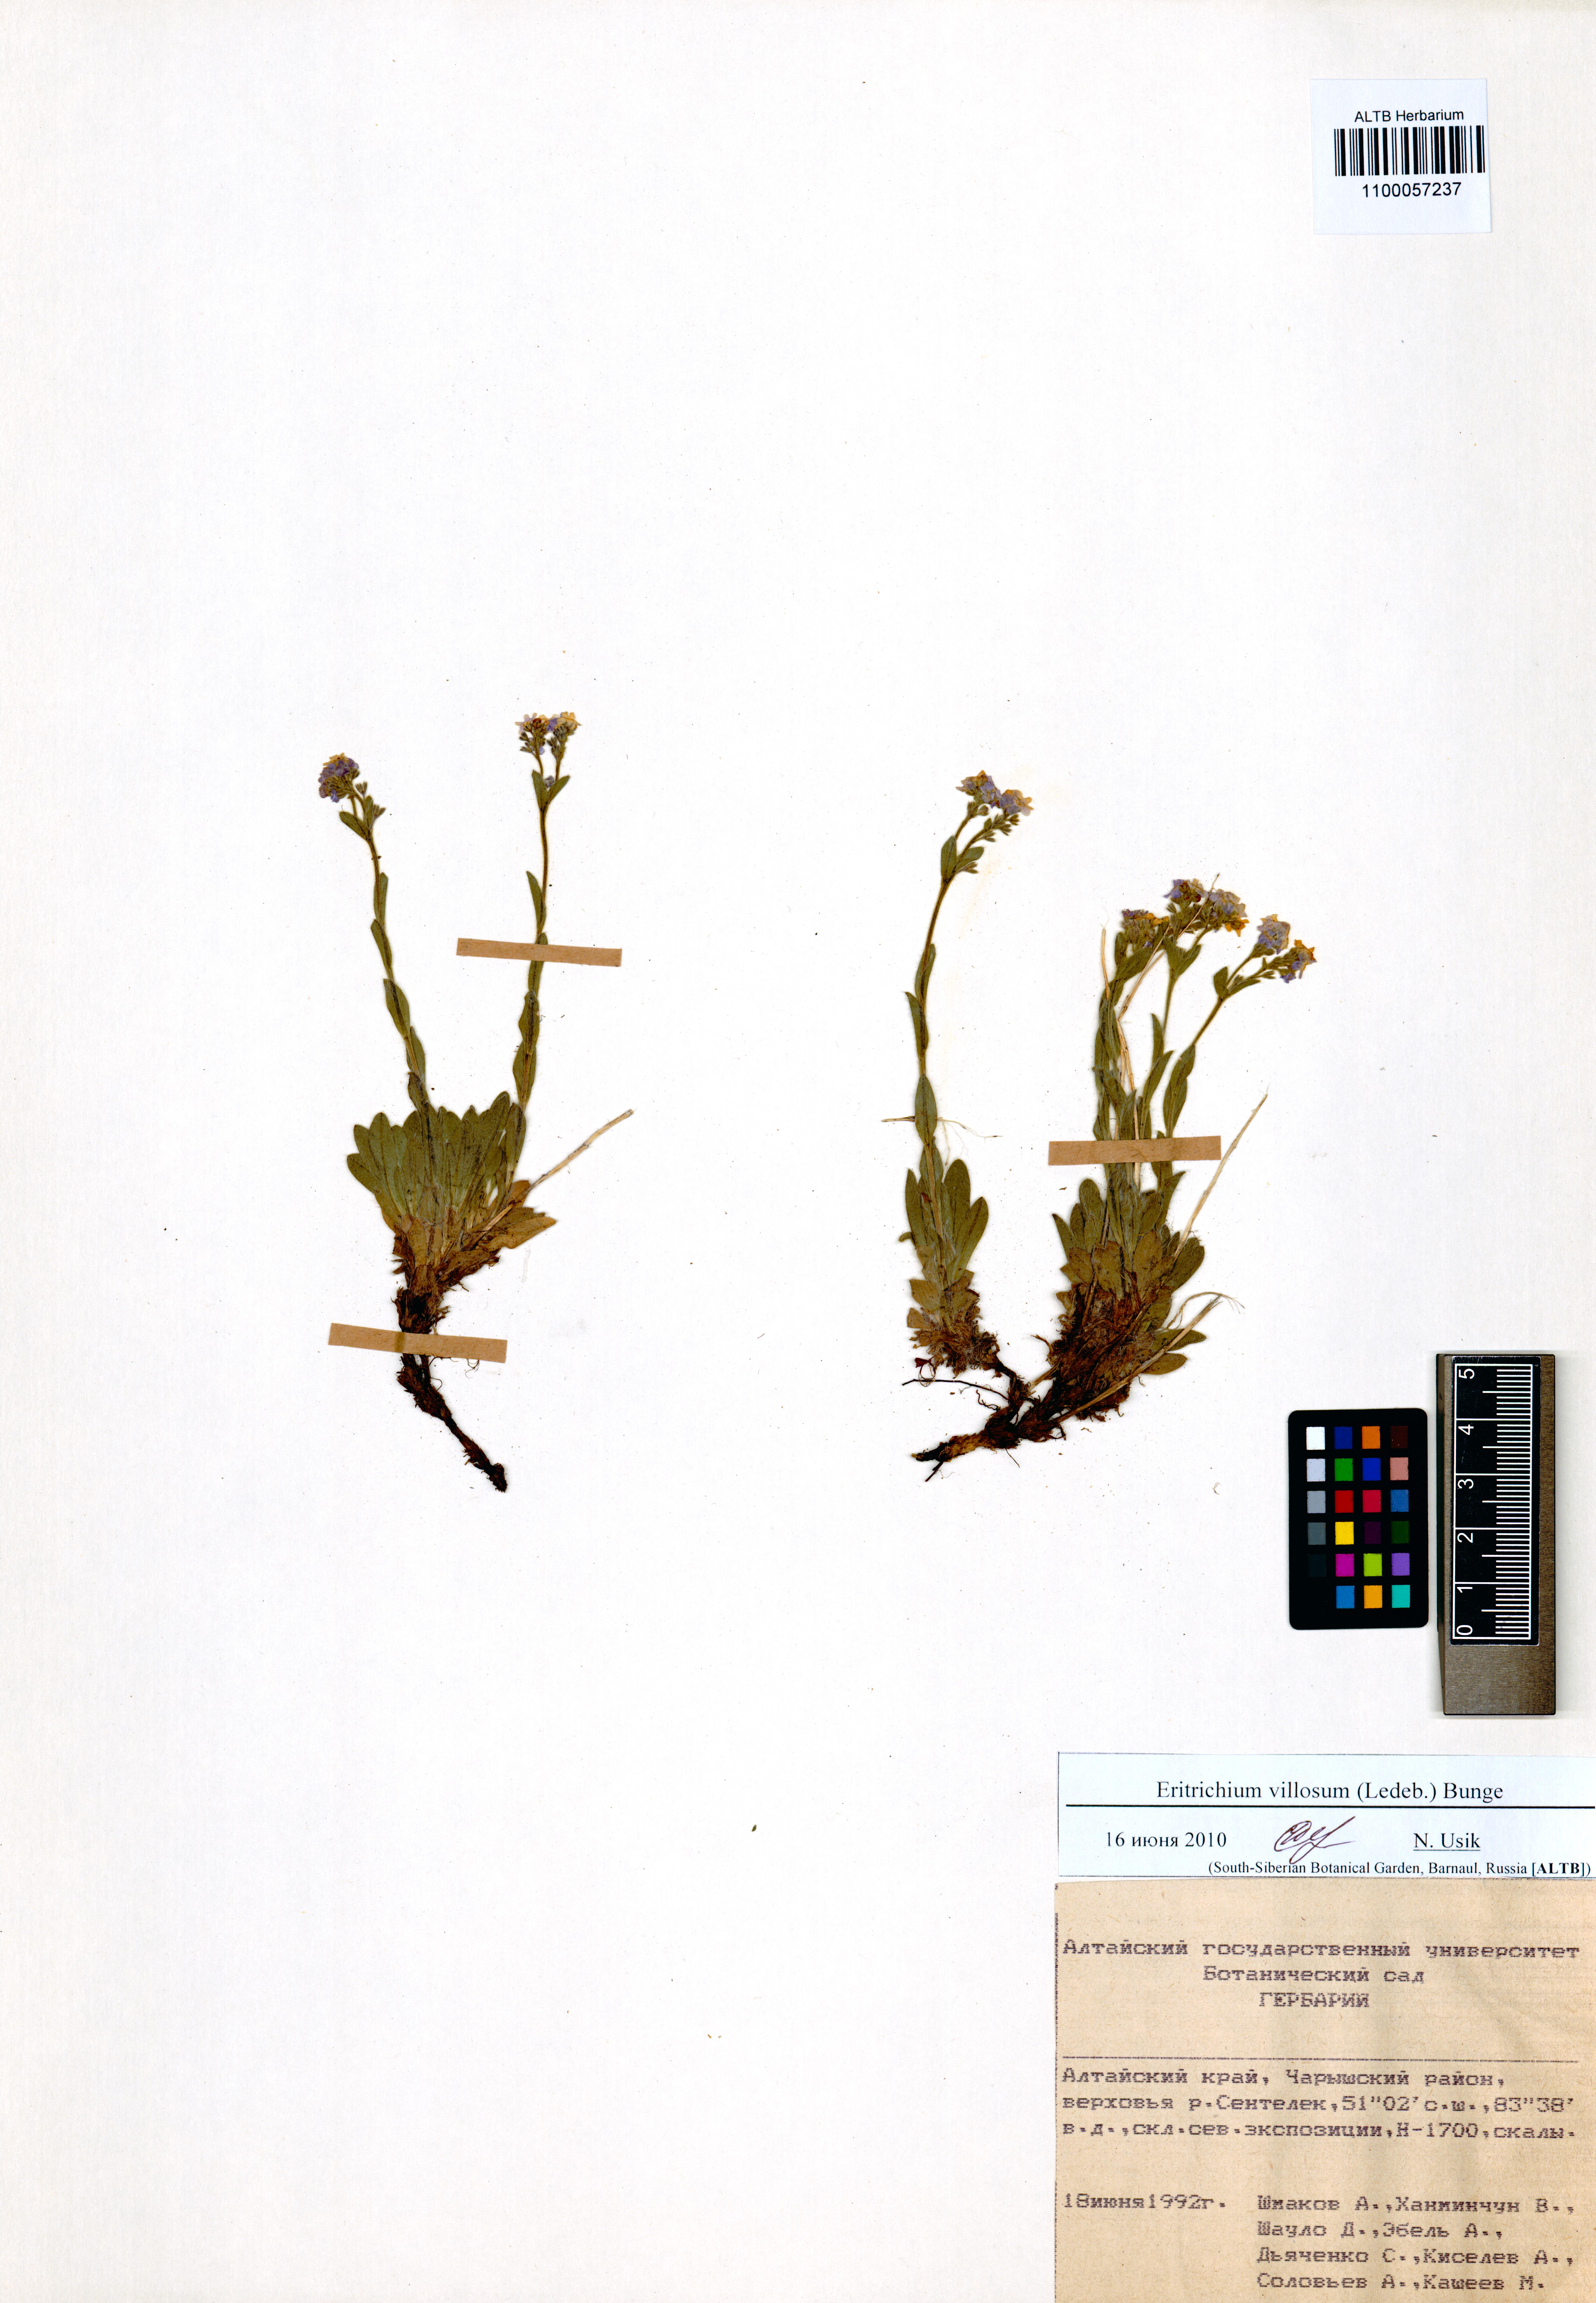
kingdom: Plantae
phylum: Tracheophyta
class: Magnoliopsida
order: Boraginales
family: Boraginaceae
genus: Eritrichium
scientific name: Eritrichium villosum
